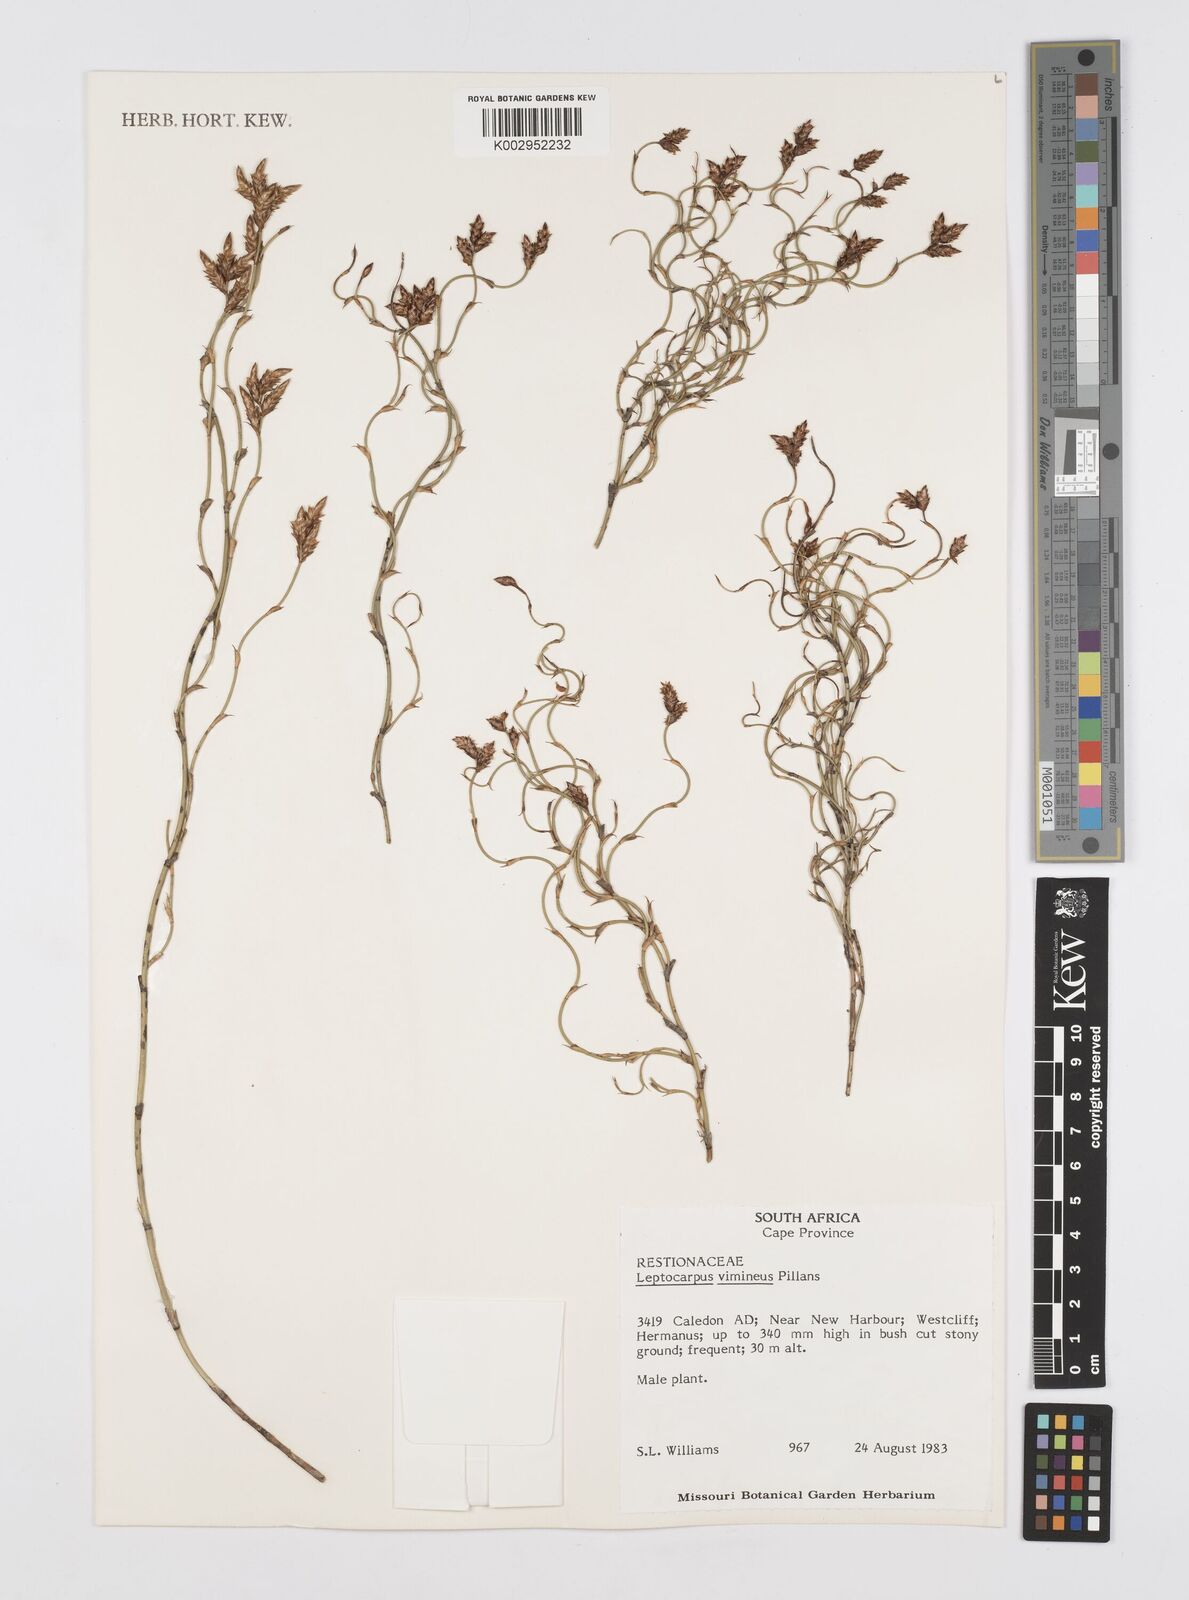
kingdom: Plantae
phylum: Tracheophyta
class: Liliopsida
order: Poales
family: Restionaceae
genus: Restio
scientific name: Restio vimineus
